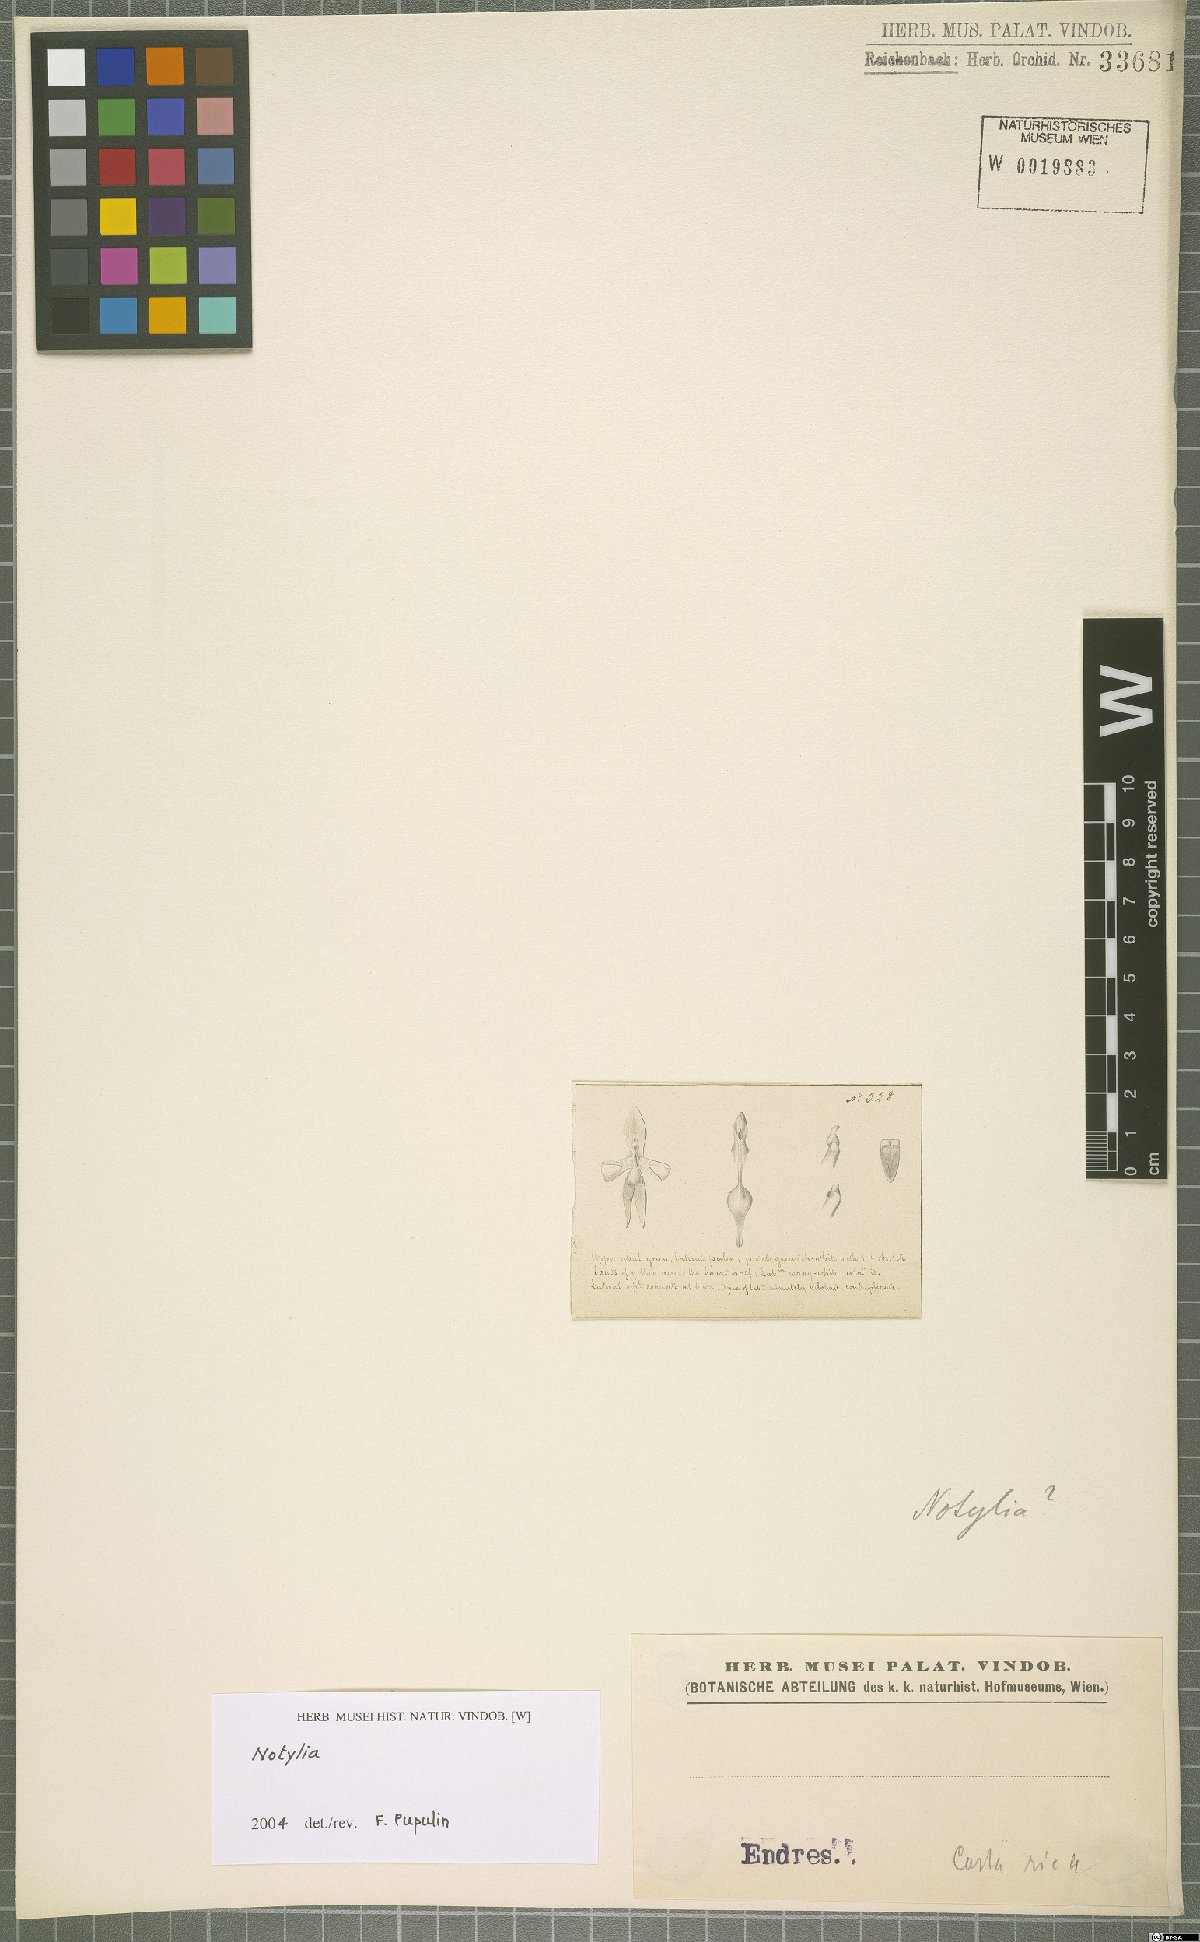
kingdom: Plantae
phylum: Tracheophyta
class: Liliopsida
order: Asparagales
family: Orchidaceae
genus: Notylia
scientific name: Notylia
